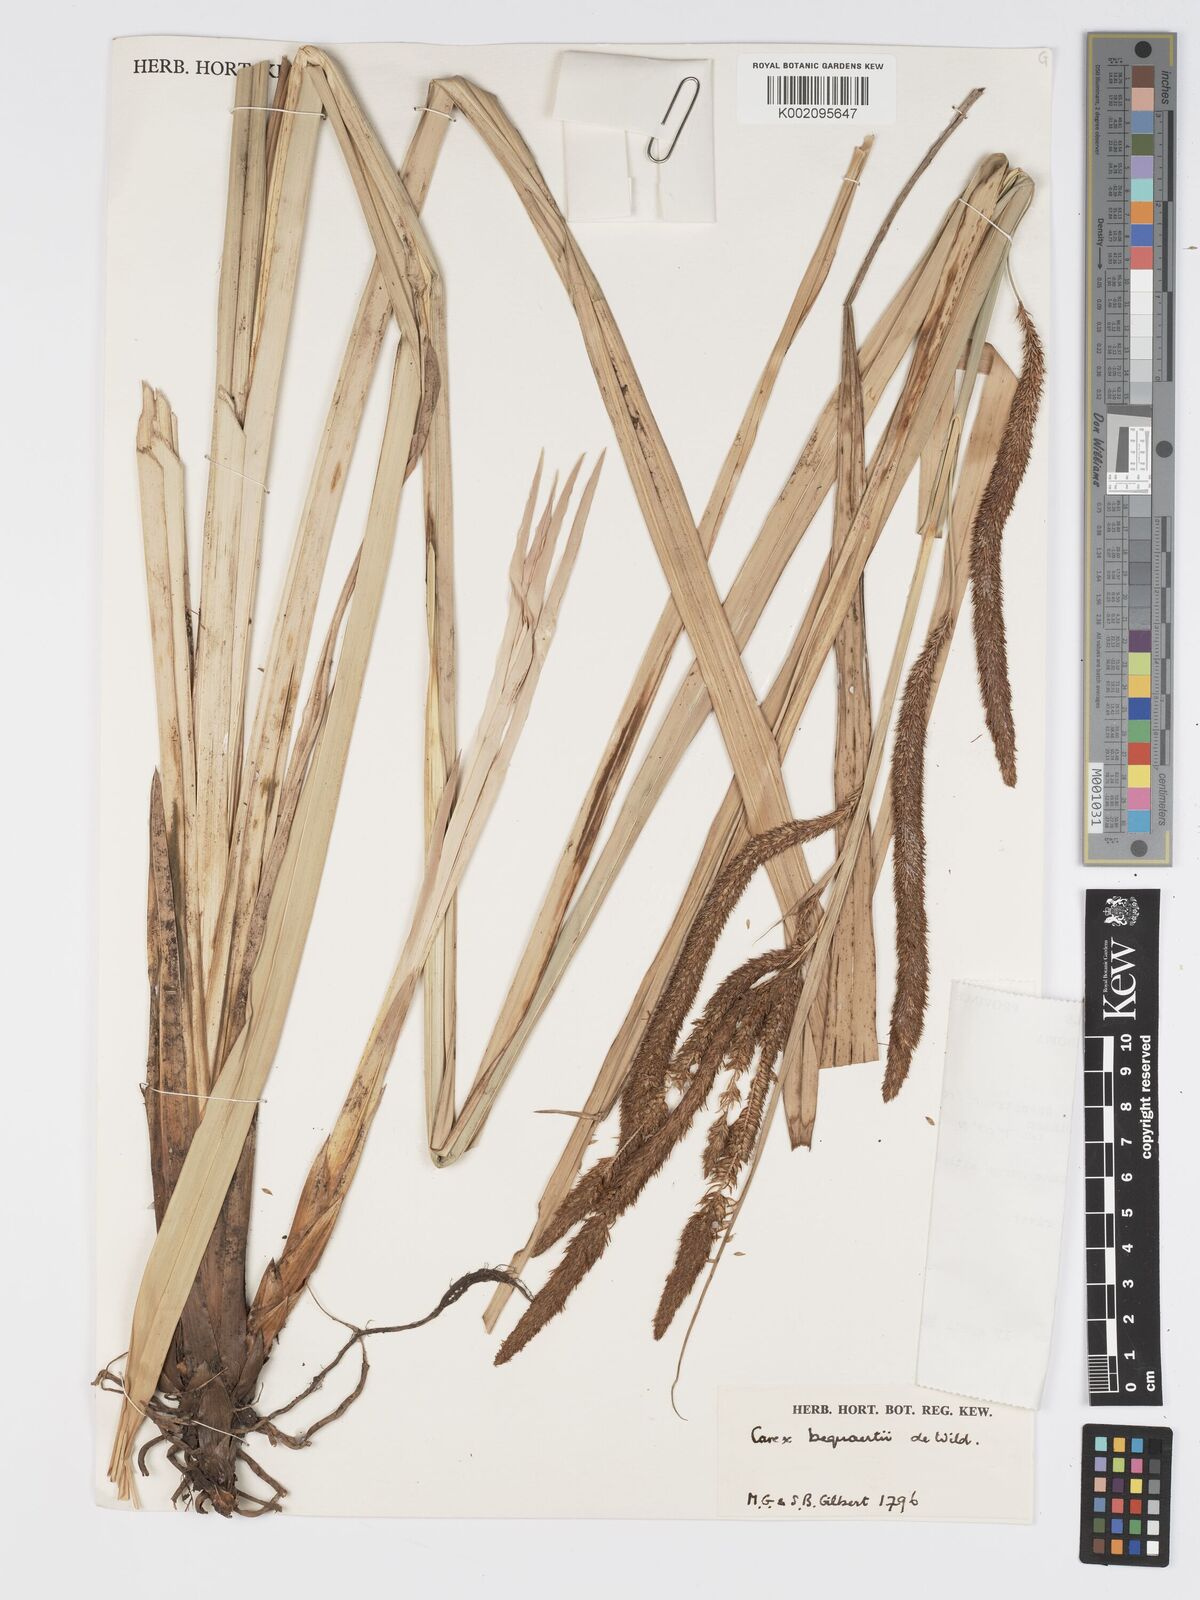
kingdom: Plantae
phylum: Tracheophyta
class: Liliopsida
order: Poales
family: Cyperaceae
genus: Carex
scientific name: Carex bequaertii
